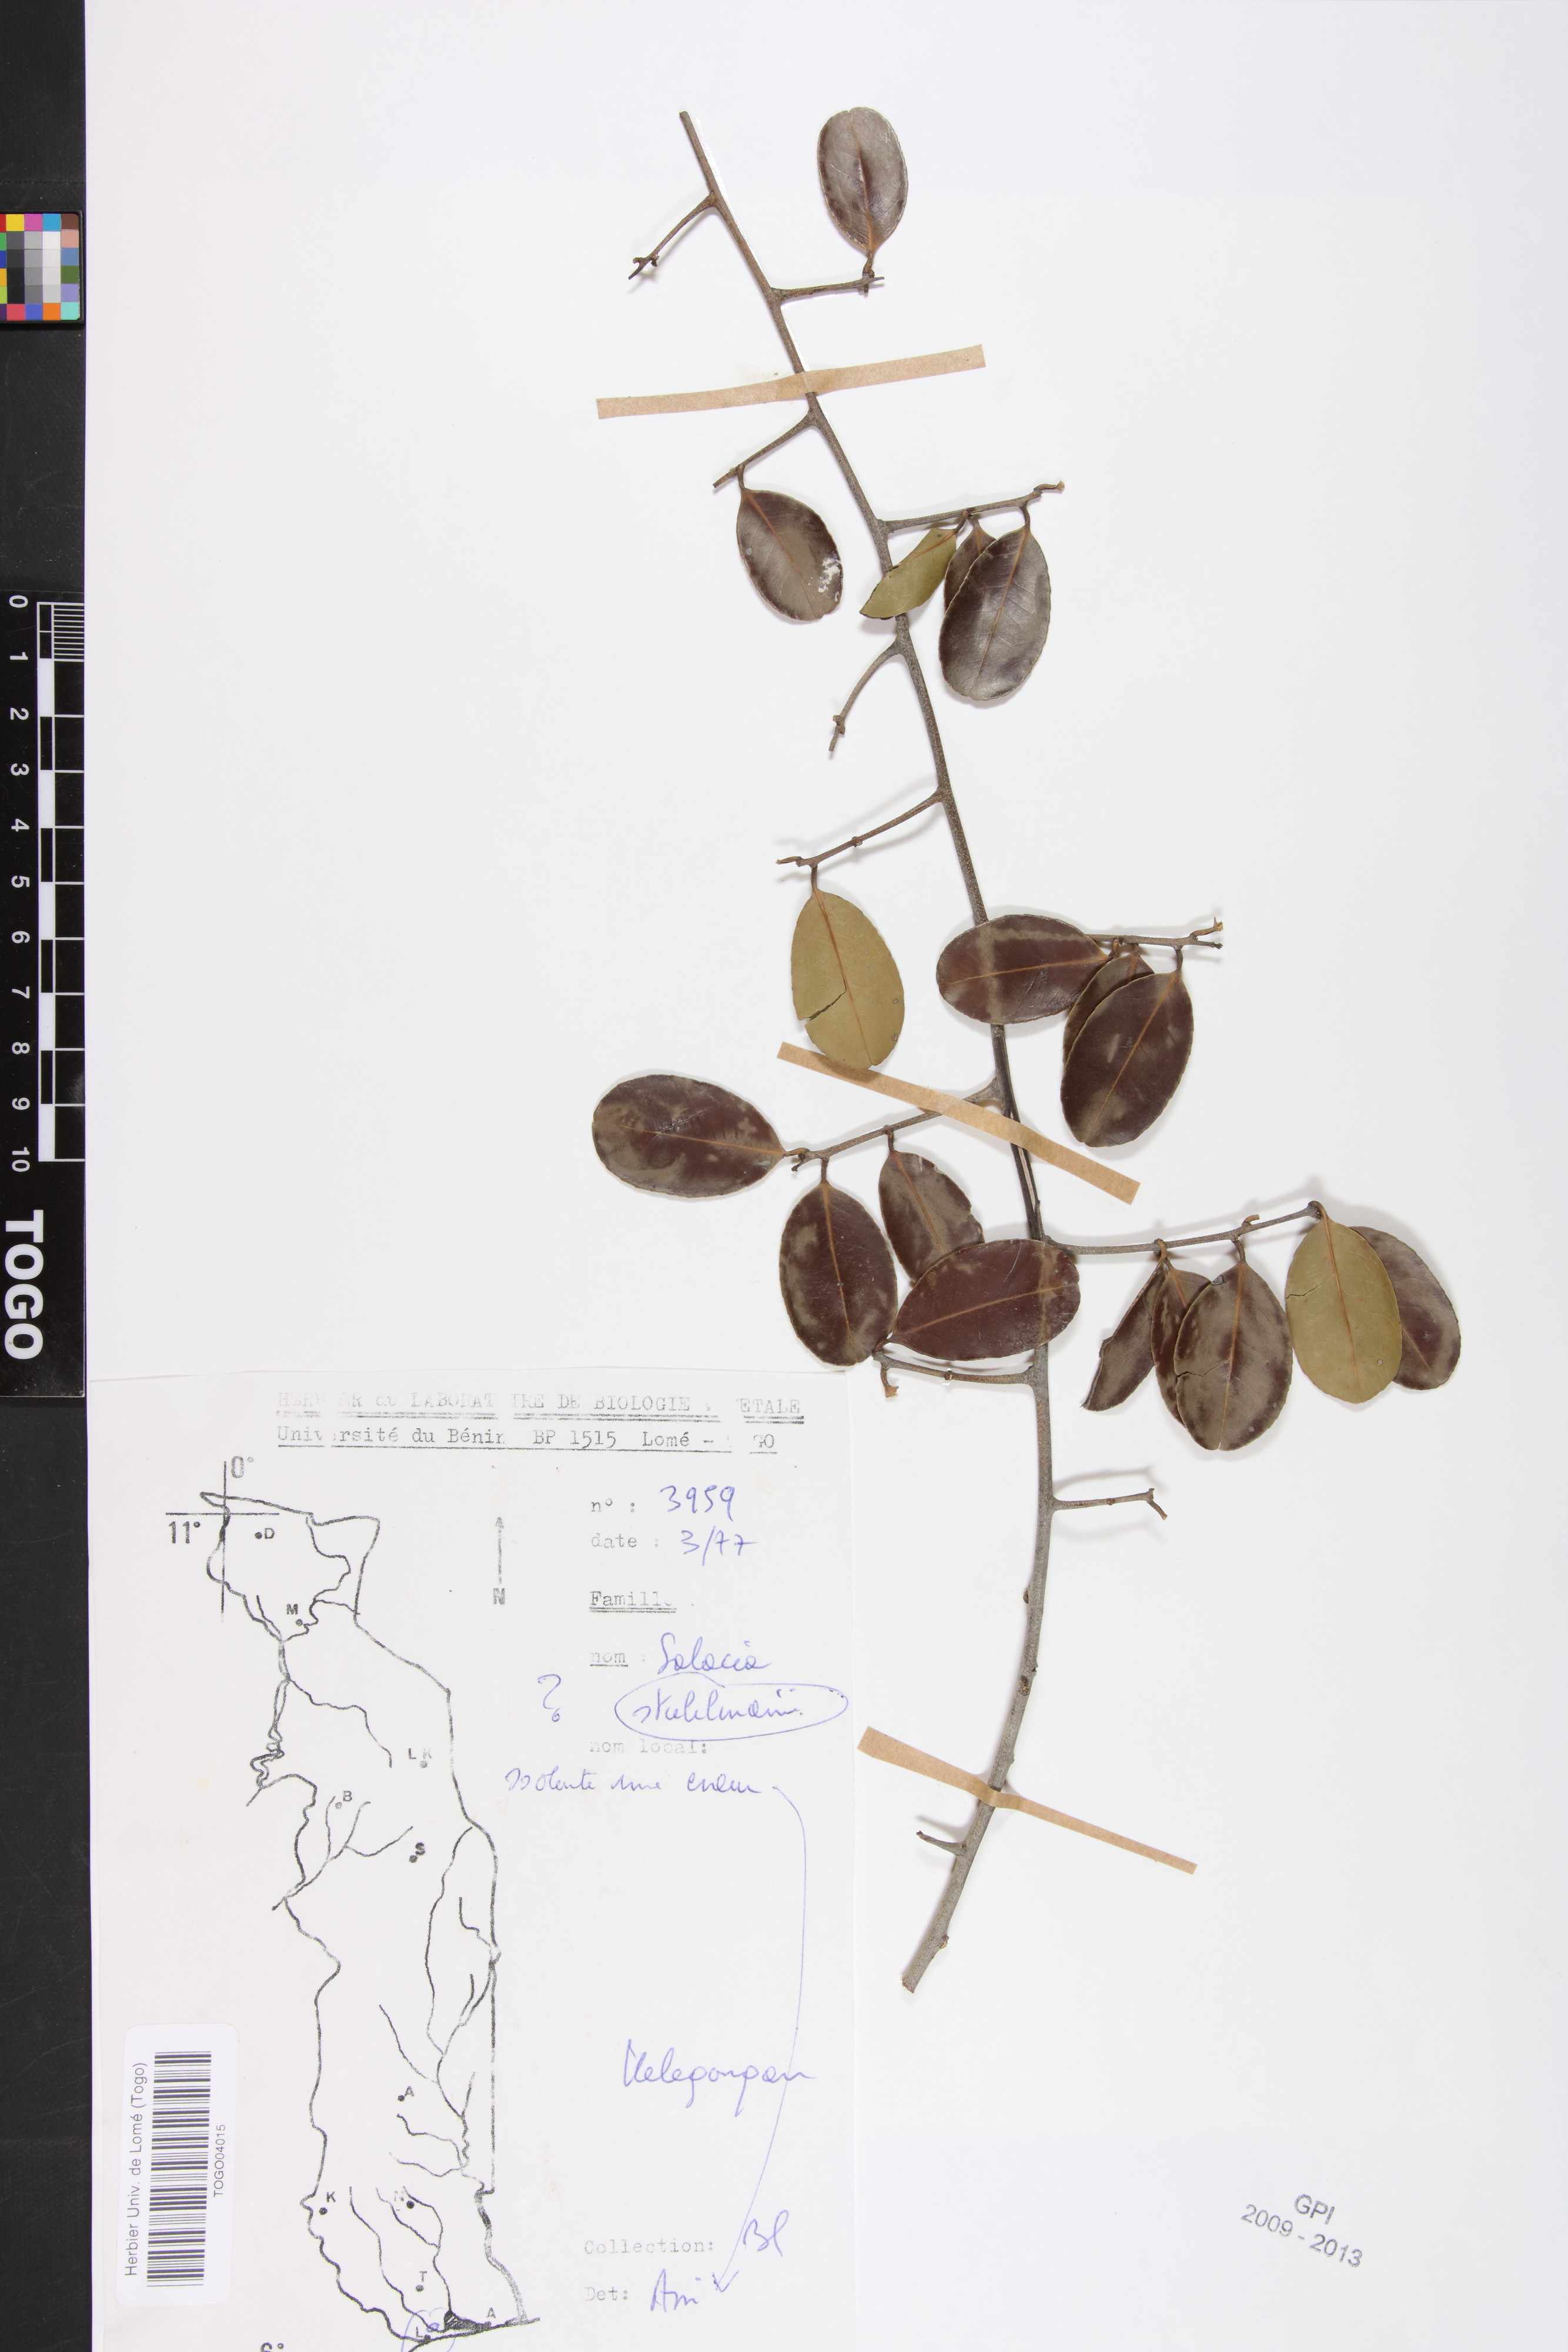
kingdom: Plantae
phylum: Tracheophyta
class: Magnoliopsida
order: Celastrales
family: Celastraceae
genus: Salacia
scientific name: Salacia stuhlmanniana
